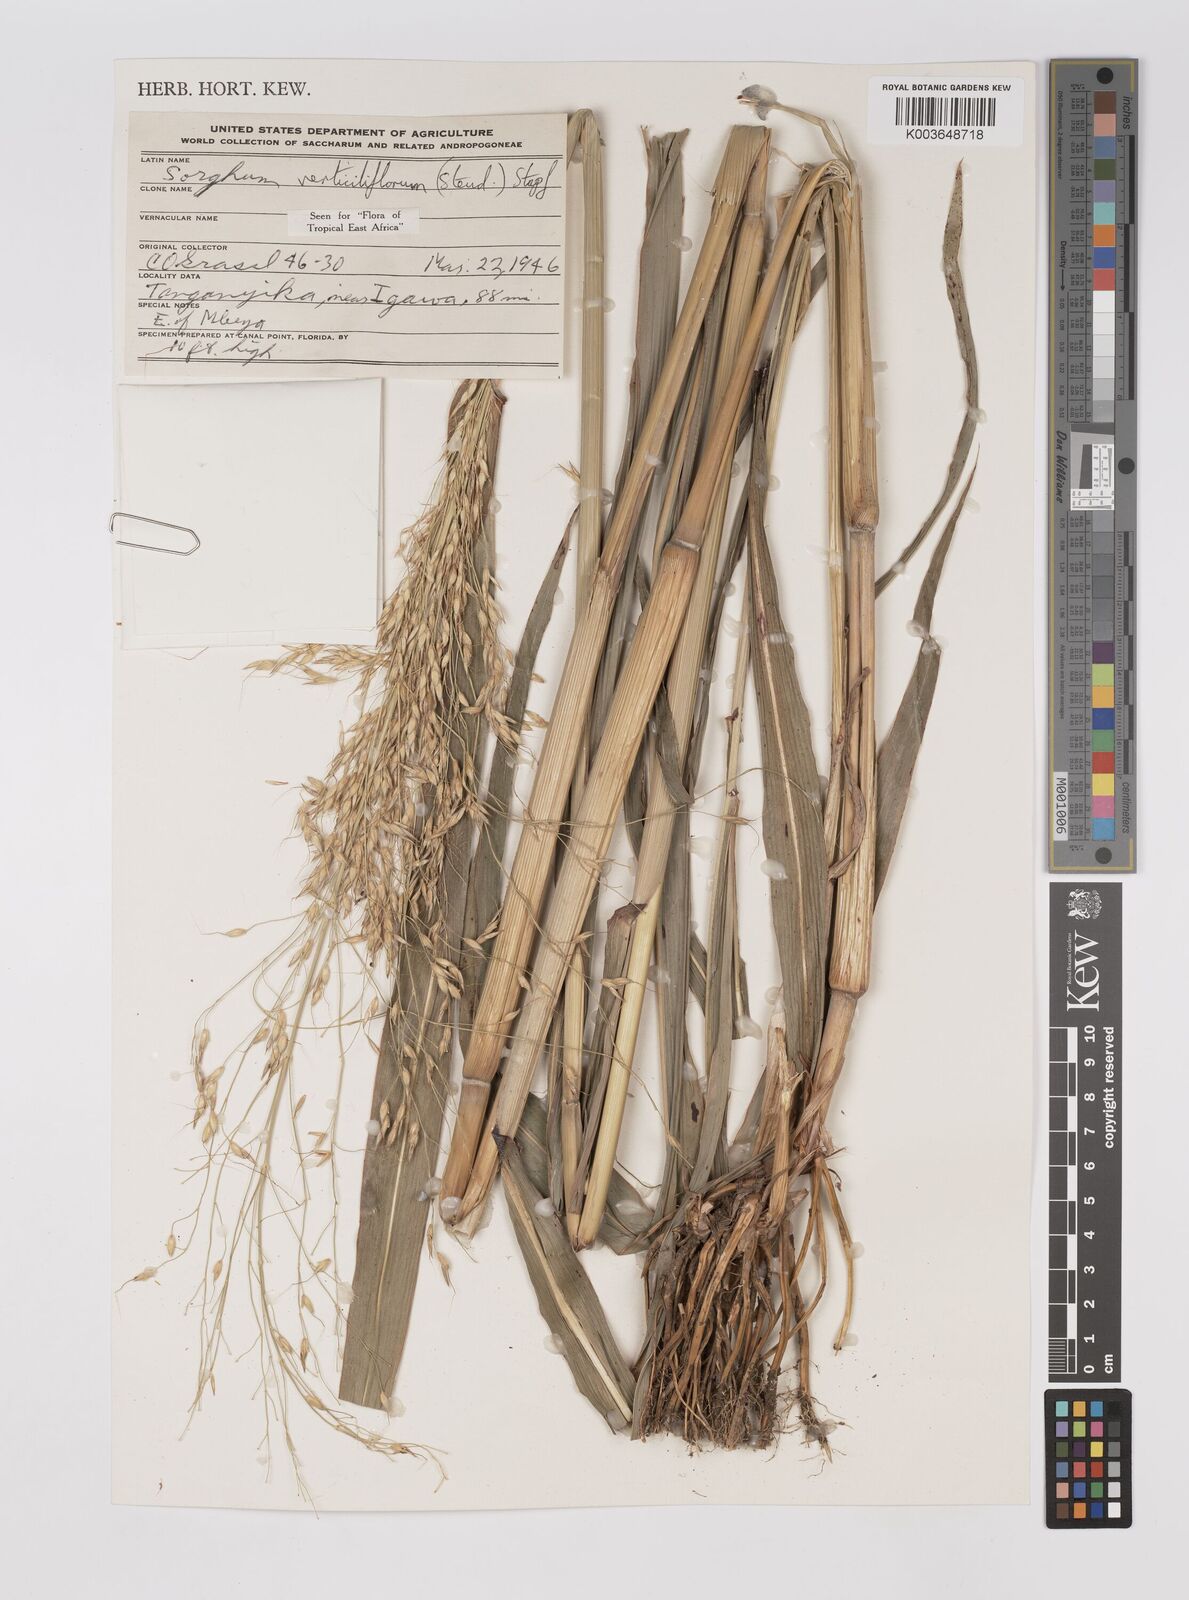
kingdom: Plantae
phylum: Tracheophyta
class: Liliopsida
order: Poales
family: Poaceae
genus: Sorghum
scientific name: Sorghum arundinaceum
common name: Sorghum
